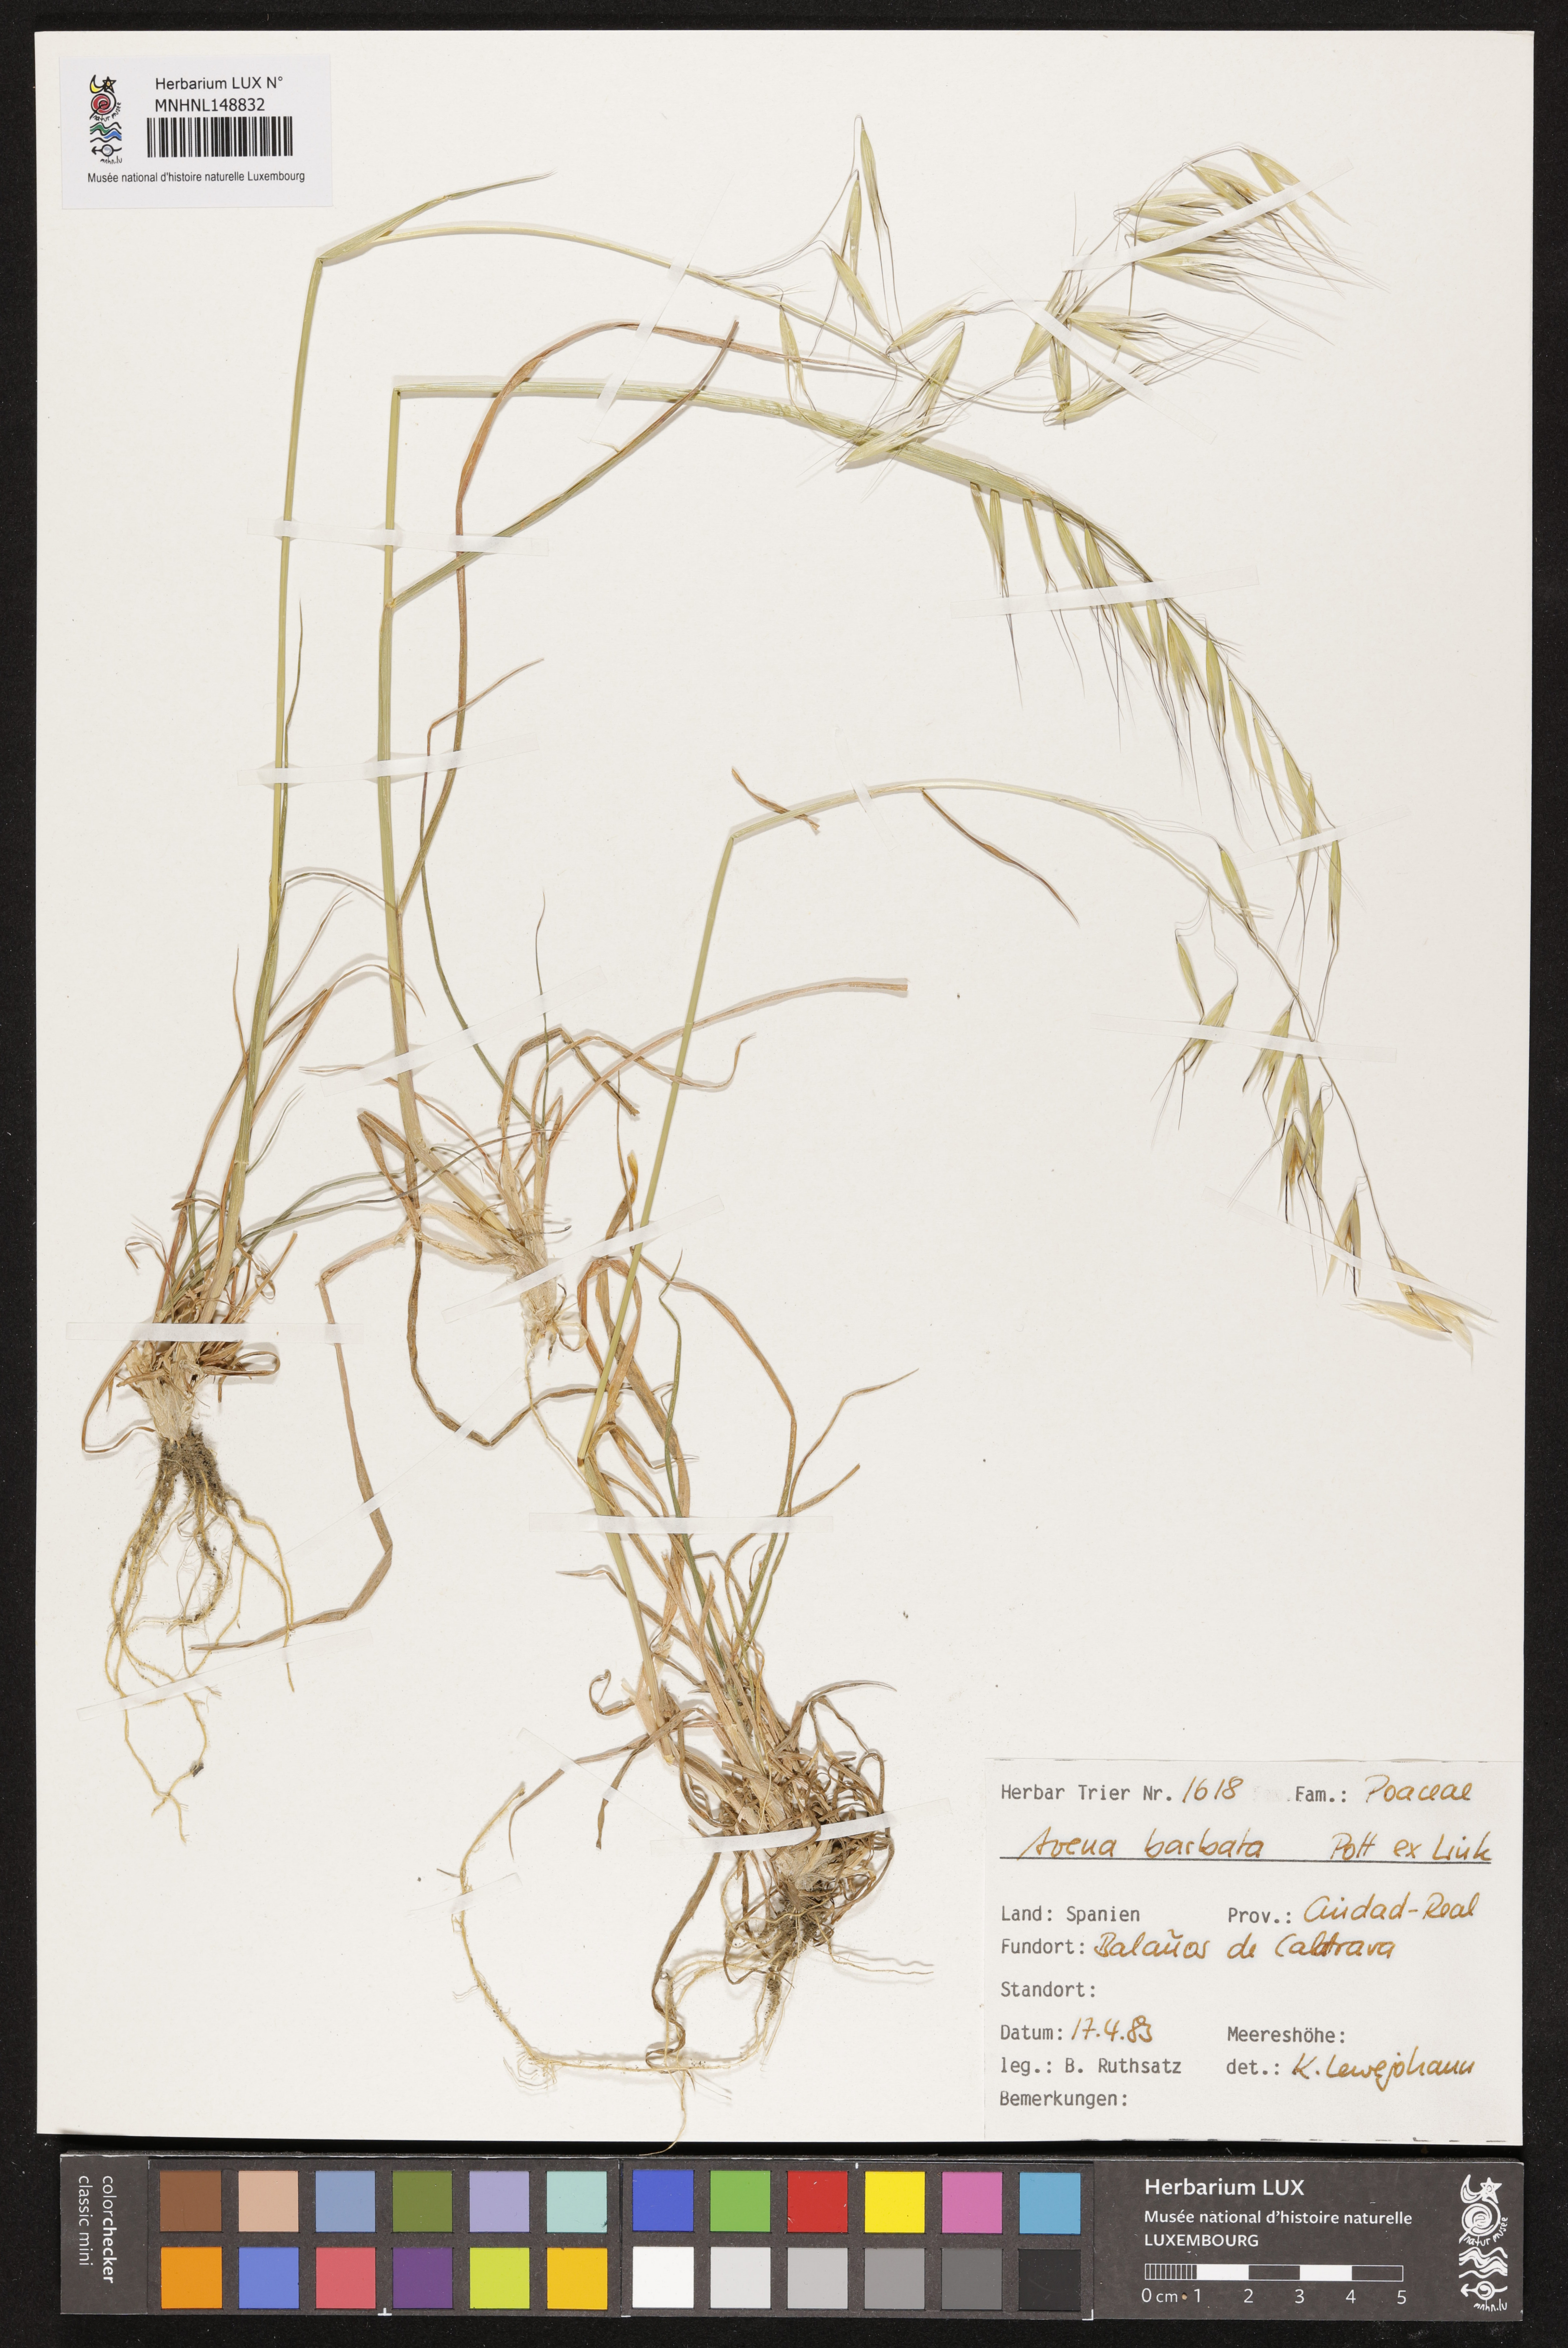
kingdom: Plantae
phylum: Tracheophyta
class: Liliopsida
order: Poales
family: Poaceae
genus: Avena
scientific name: Avena barbata
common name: Slender oat
